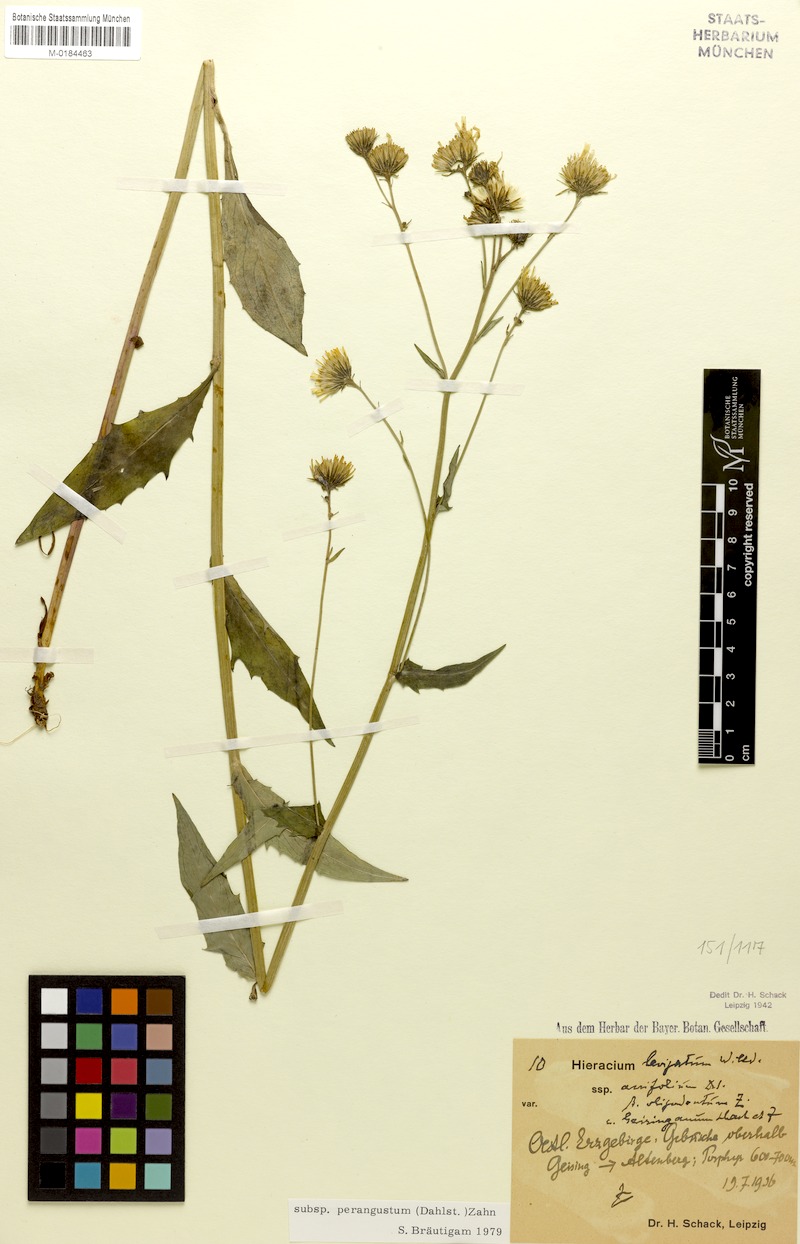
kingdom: Plantae
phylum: Tracheophyta
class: Magnoliopsida
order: Asterales
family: Asteraceae
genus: Hieracium
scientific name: Hieracium laevigatum
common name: Smooth hawkweed
